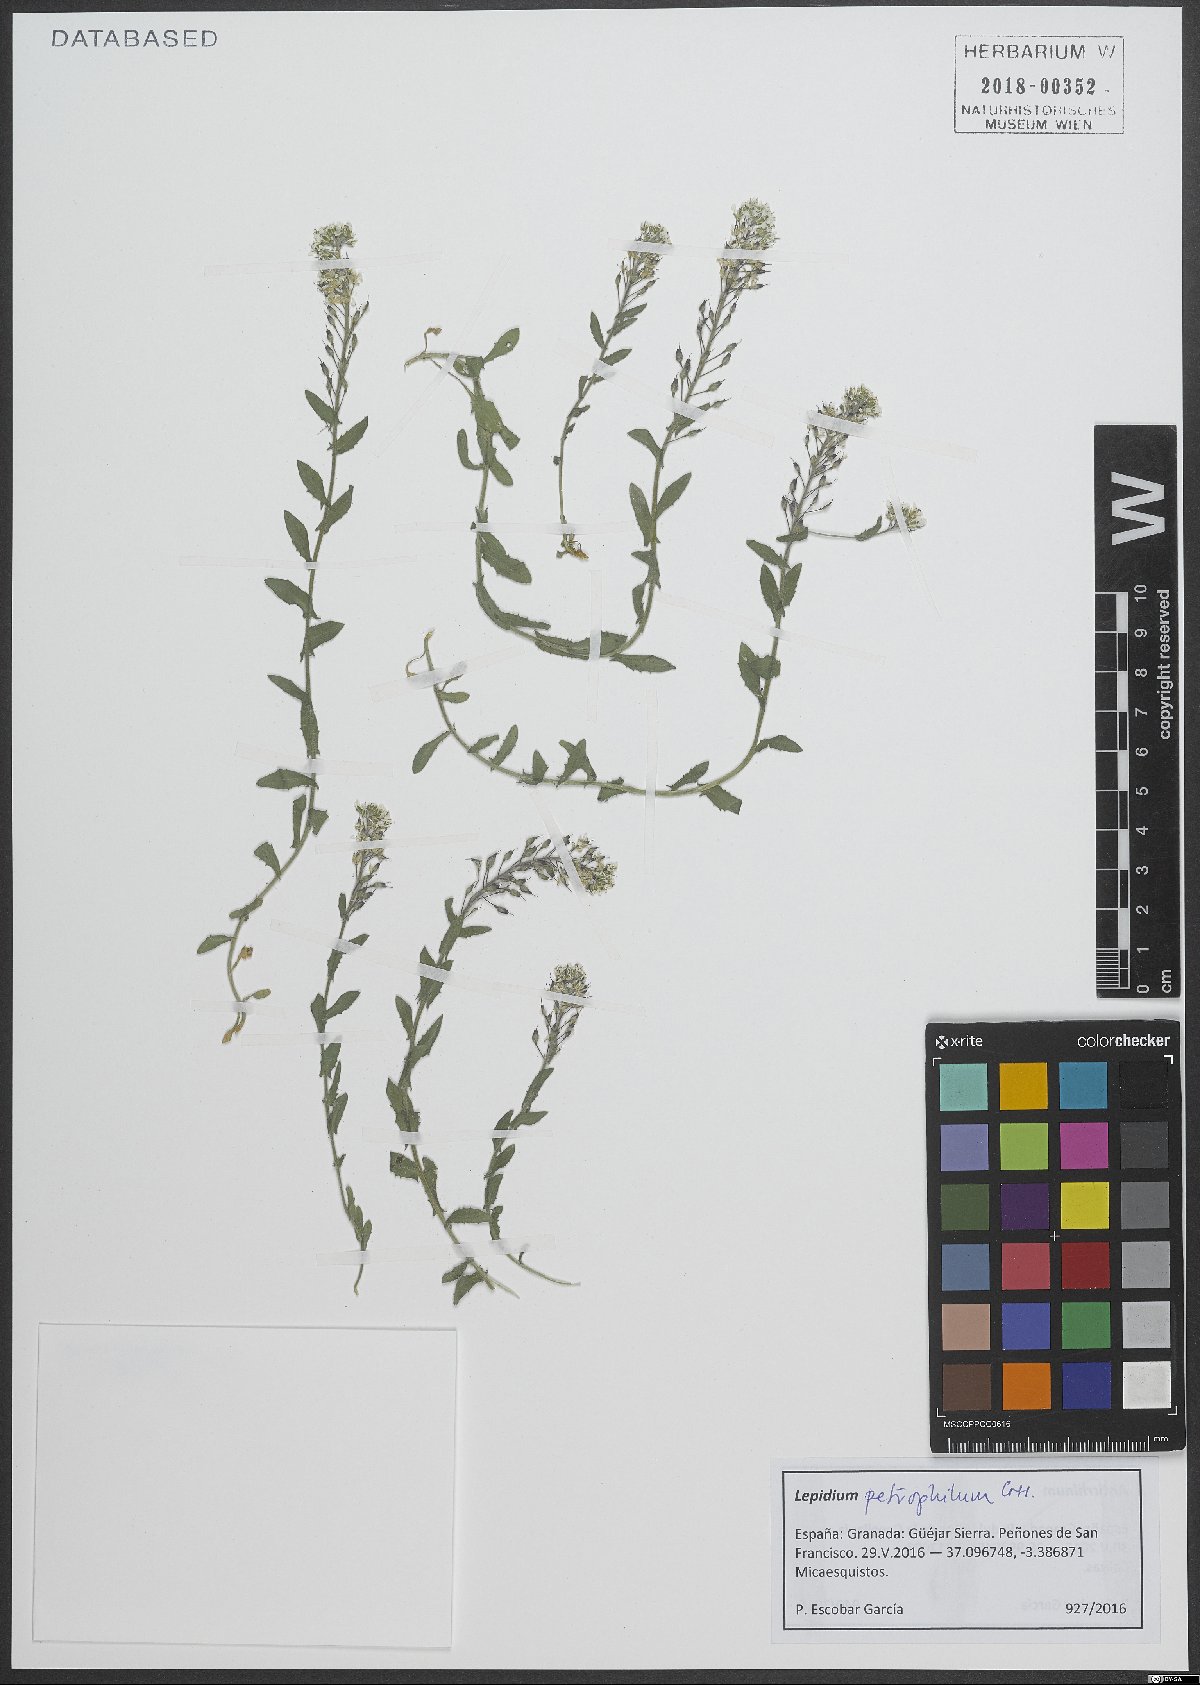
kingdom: Plantae
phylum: Tracheophyta
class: Magnoliopsida
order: Brassicales
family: Brassicaceae
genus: Lepidium
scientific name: Lepidium hirtum
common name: Mediterranean pepperweed
